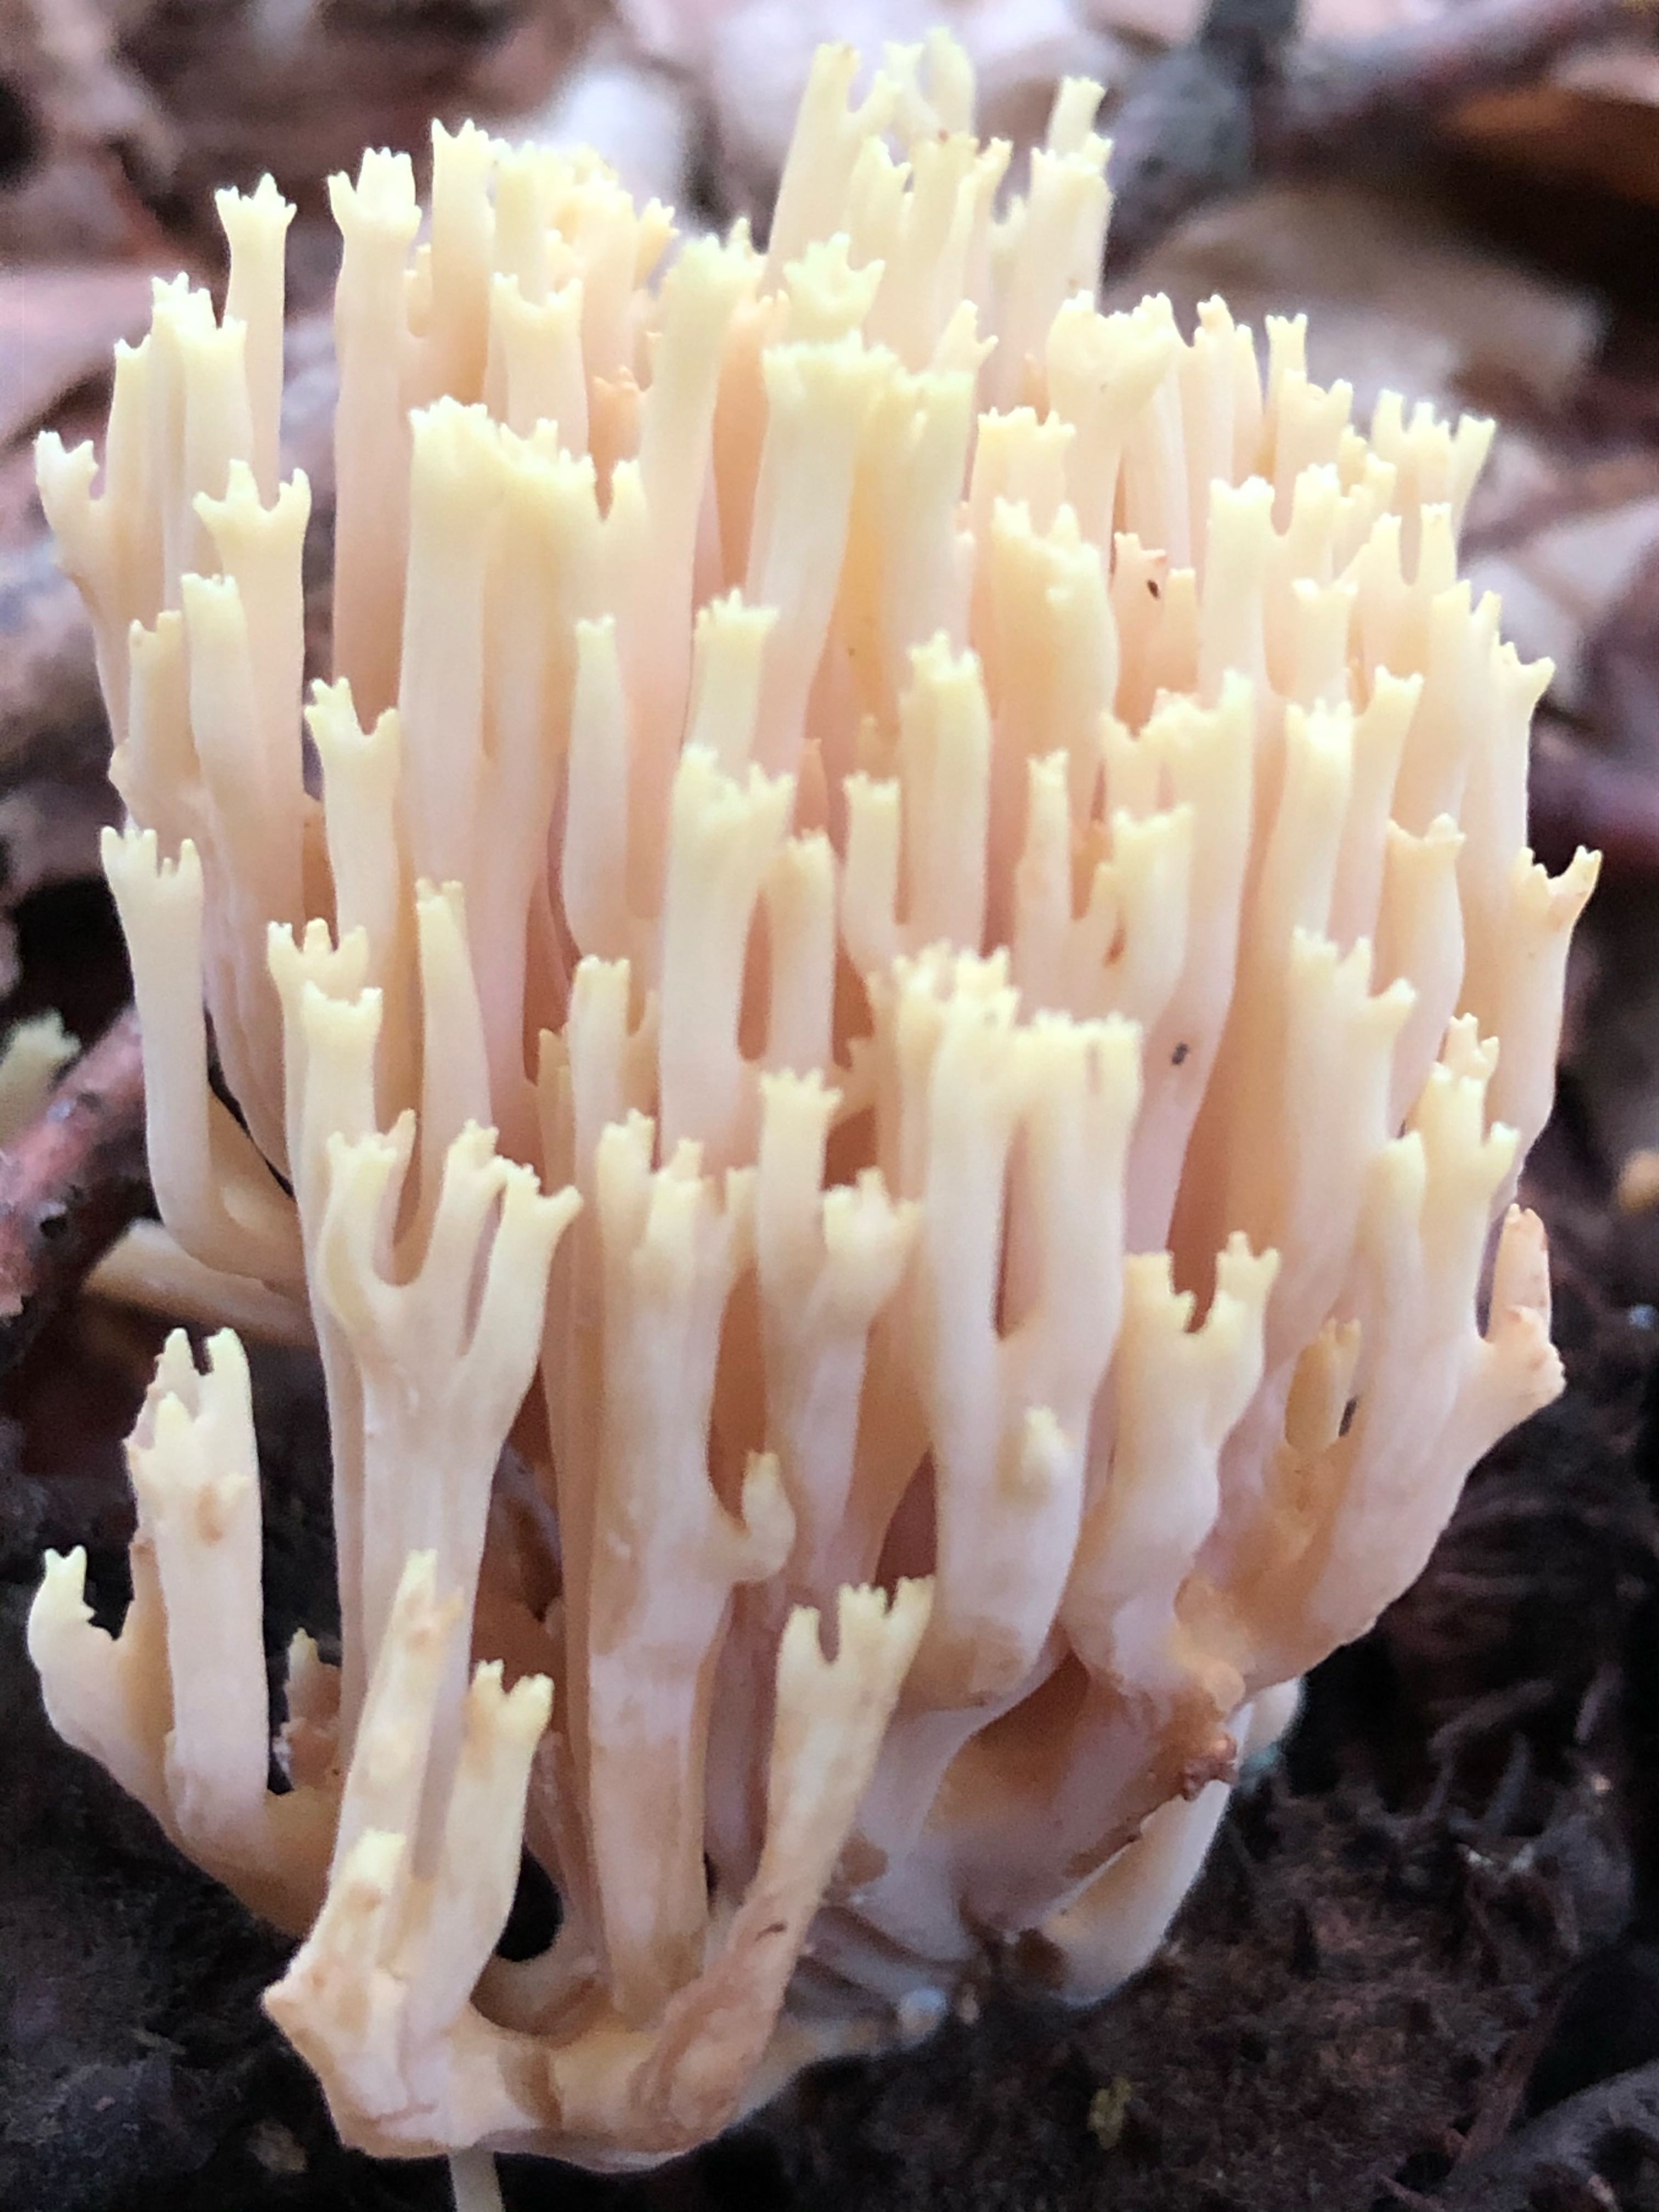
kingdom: Fungi
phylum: Basidiomycota
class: Agaricomycetes
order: Gomphales
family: Gomphaceae
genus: Ramaria
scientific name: Ramaria stricta
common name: rank koralsvamp
